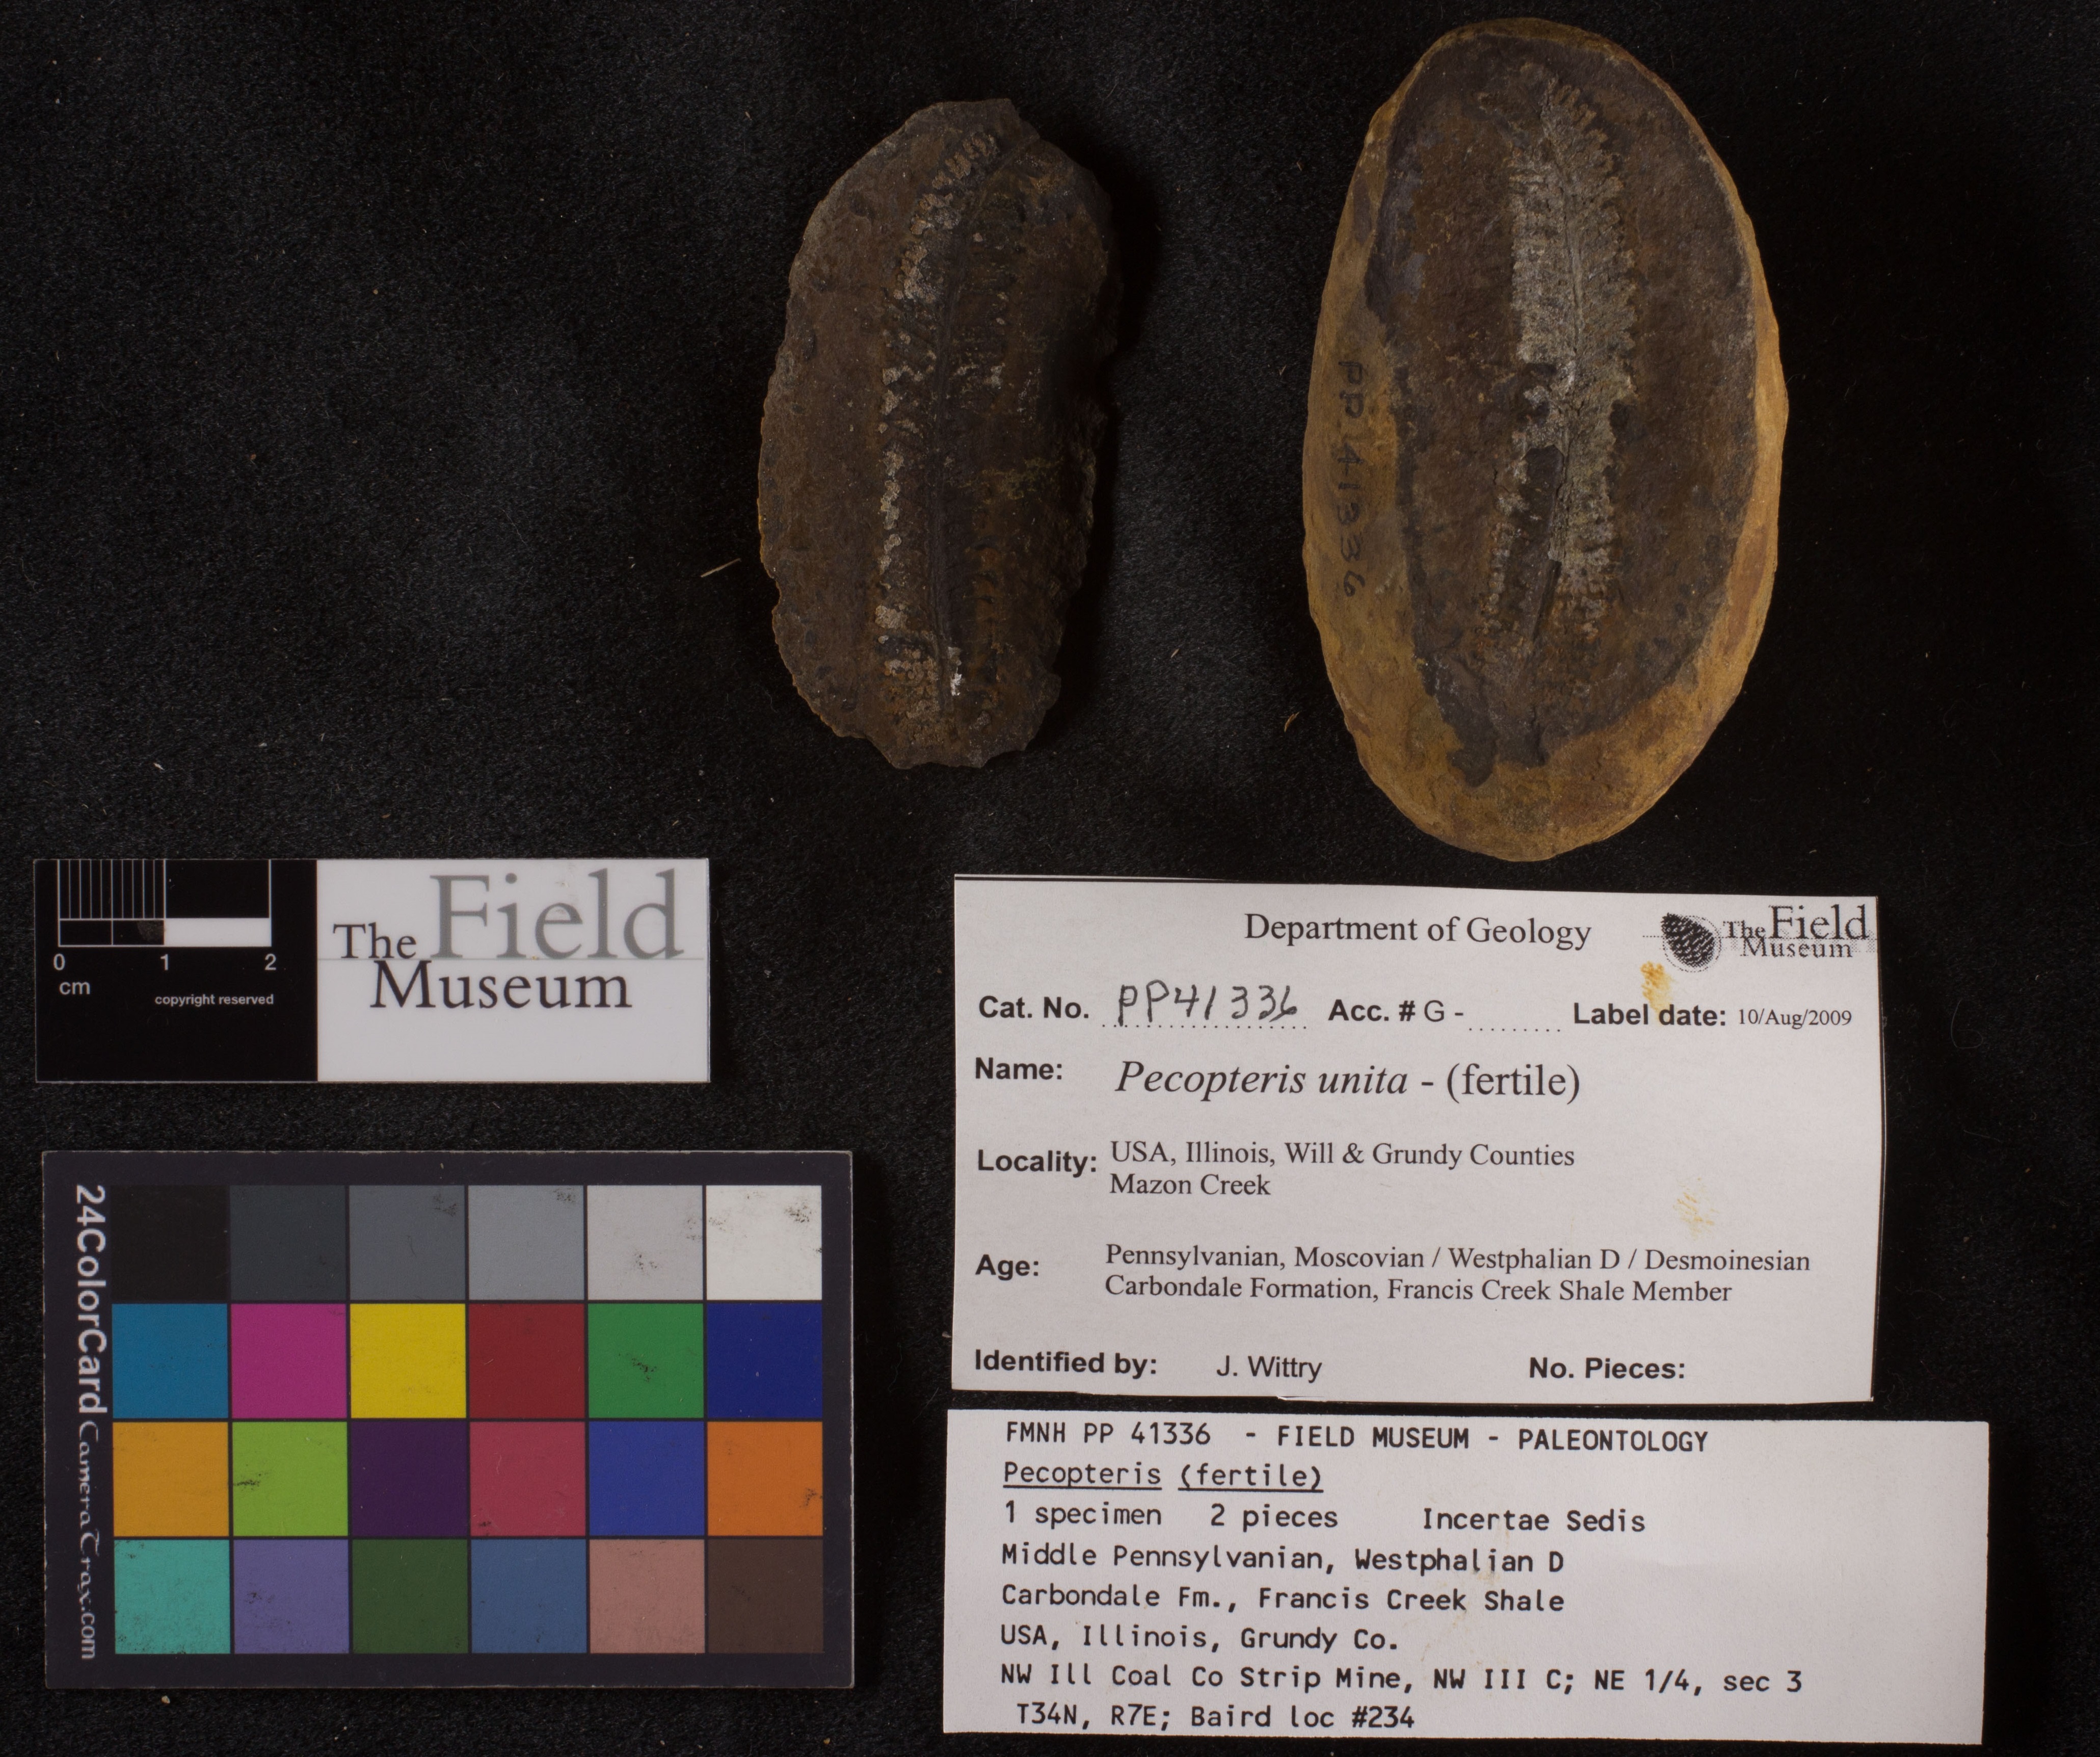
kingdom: Plantae
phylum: Tracheophyta
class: Polypodiopsida
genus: Diplazites
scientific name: Diplazites
